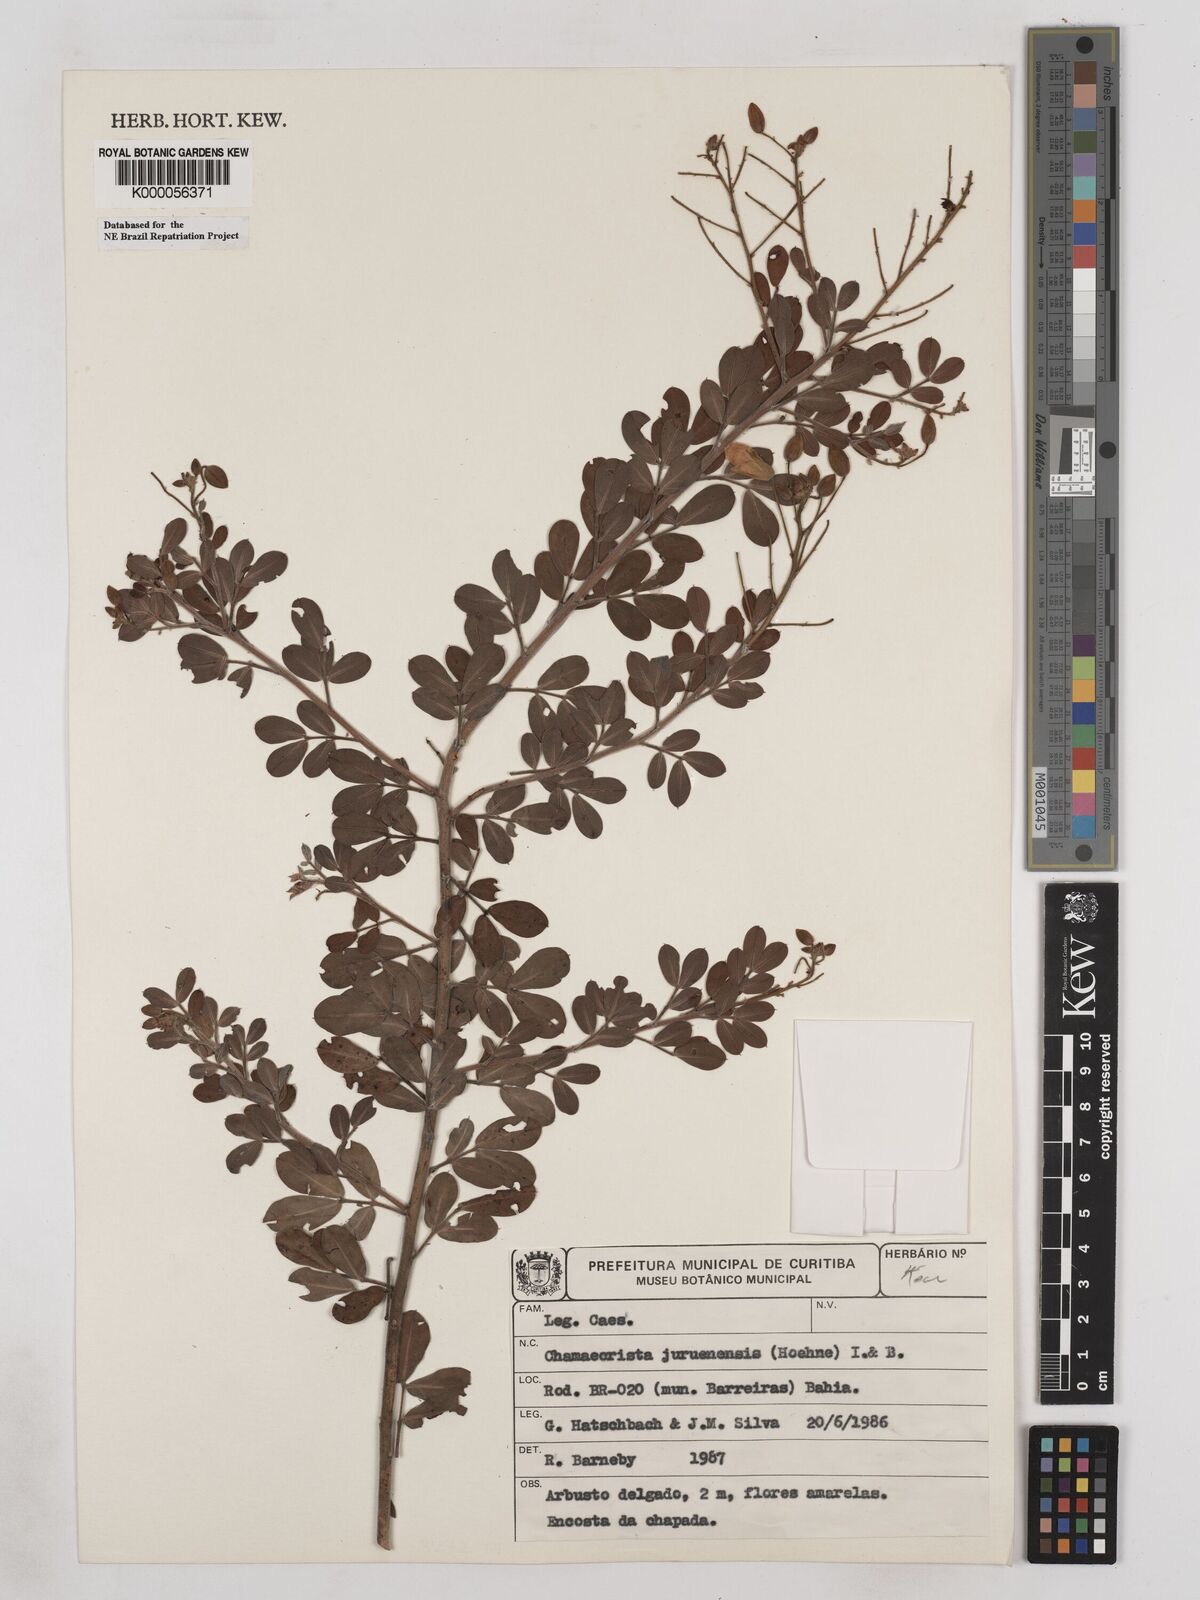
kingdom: Plantae
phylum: Tracheophyta
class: Magnoliopsida
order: Fabales
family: Fabaceae
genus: Chamaecrista
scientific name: Chamaecrista juruenensis
